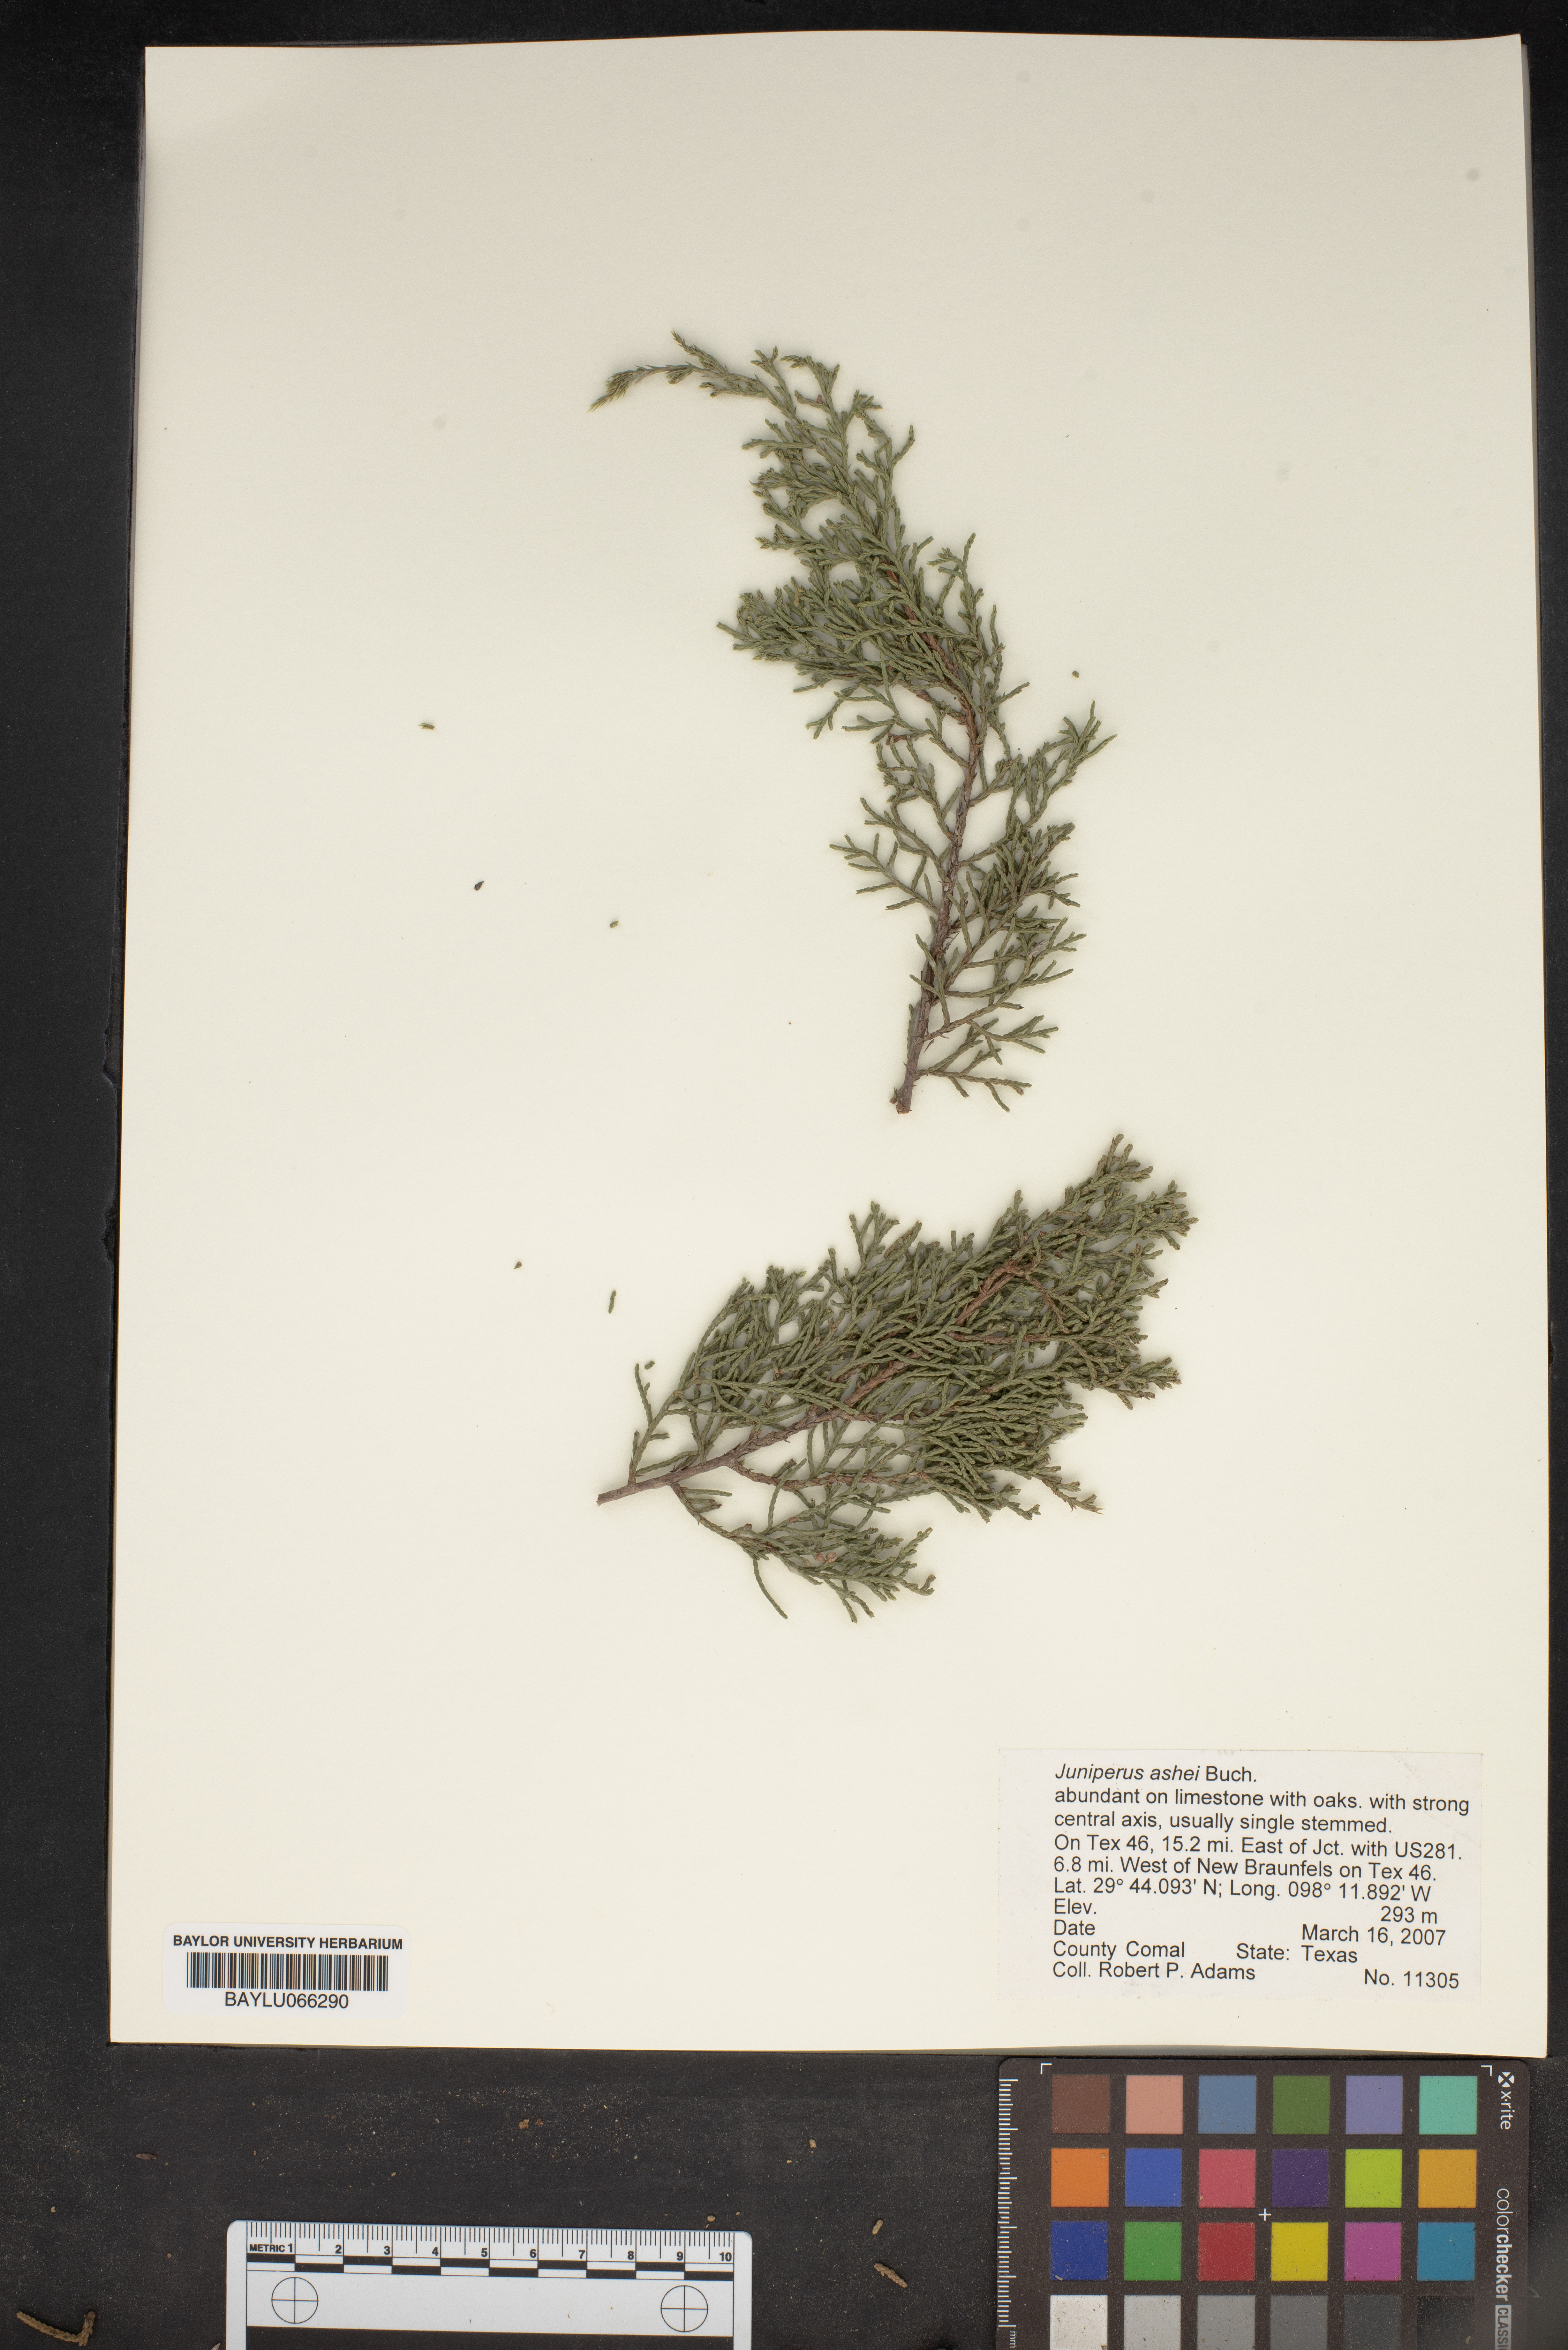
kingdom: Plantae
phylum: Tracheophyta
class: Pinopsida
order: Pinales
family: Cupressaceae
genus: Juniperus
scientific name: Juniperus ashei
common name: Mexican juniper
